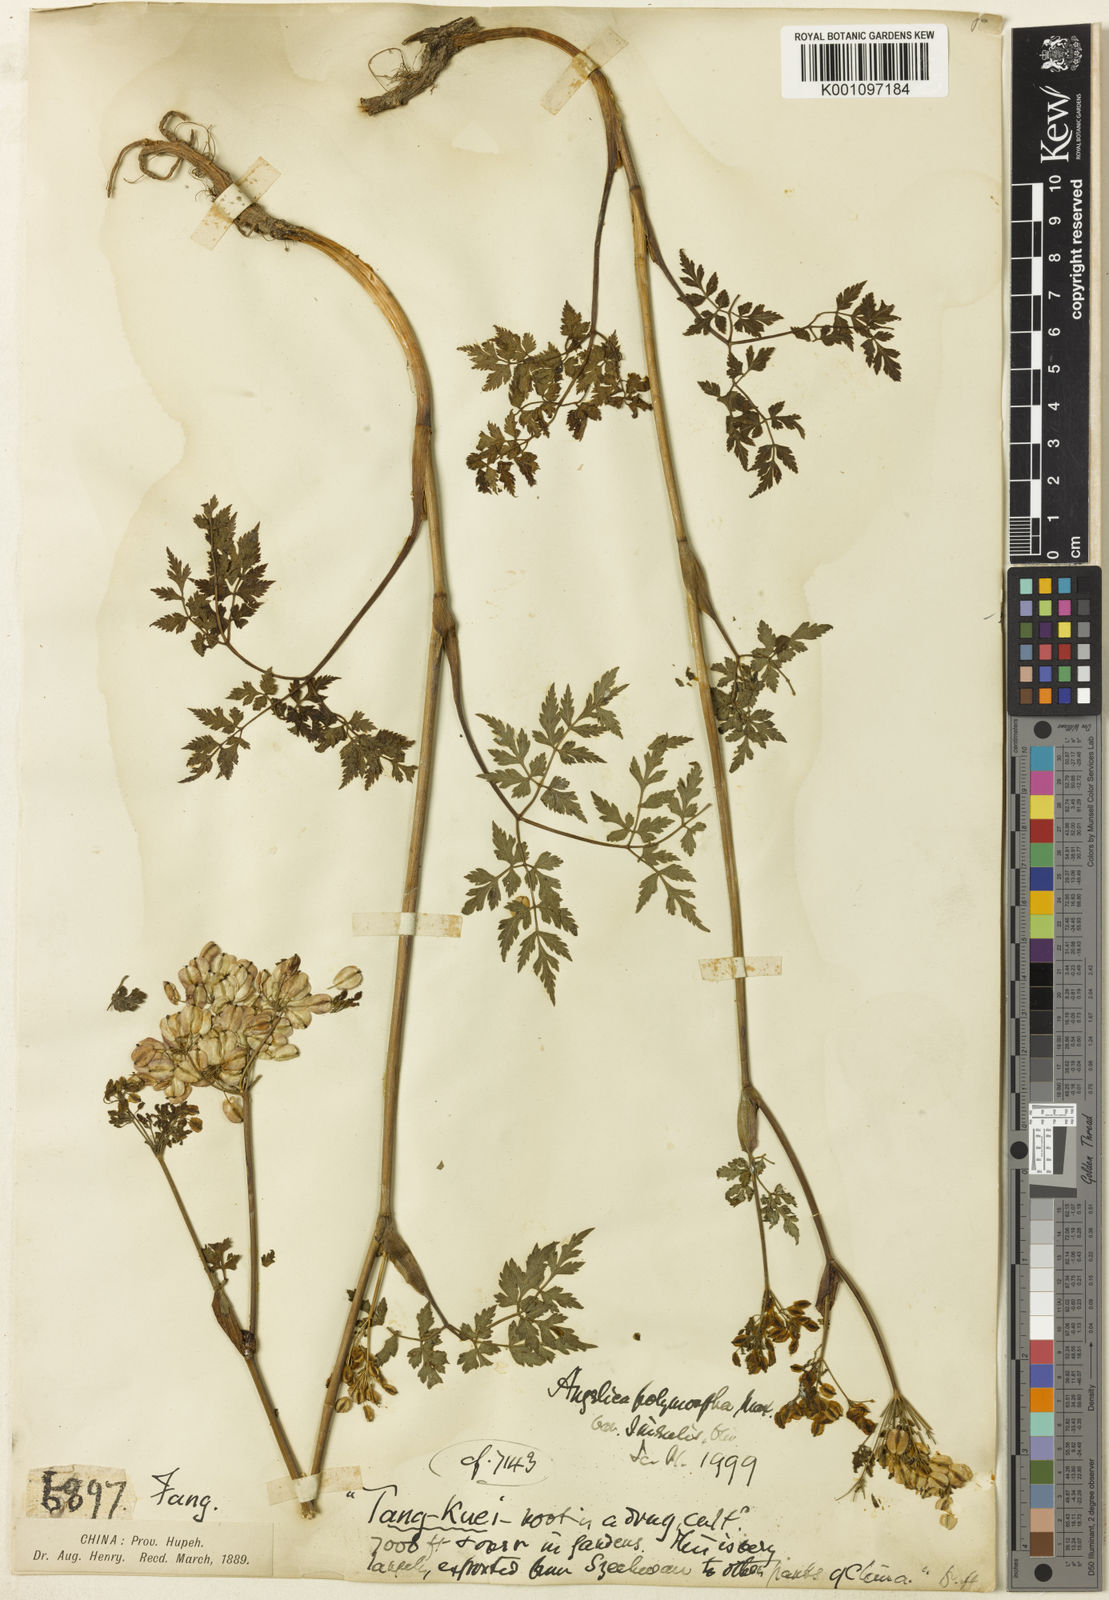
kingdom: Plantae
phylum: Tracheophyta
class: Magnoliopsida
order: Apiales
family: Apiaceae
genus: Angelica
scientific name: Angelica sinensis
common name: Chinese angelica
